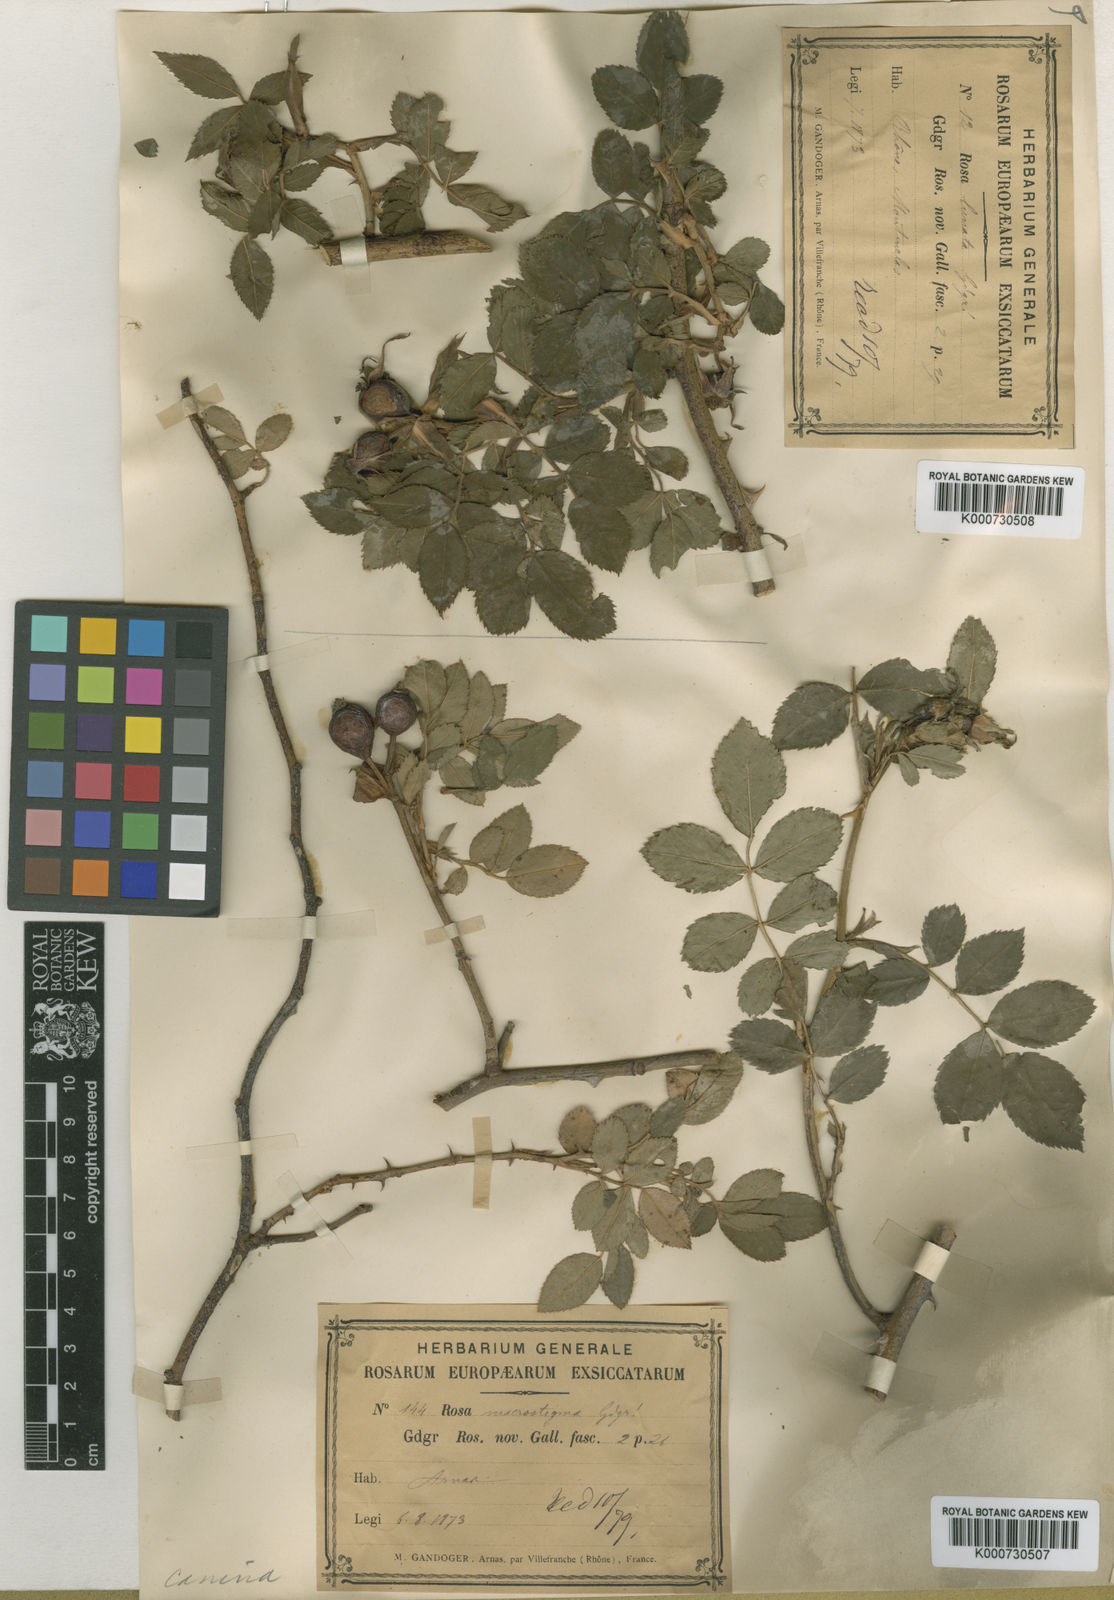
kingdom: Plantae
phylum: Tracheophyta
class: Magnoliopsida
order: Rosales
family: Rosaceae
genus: Rosa
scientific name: Rosa canina
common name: Dog rose
